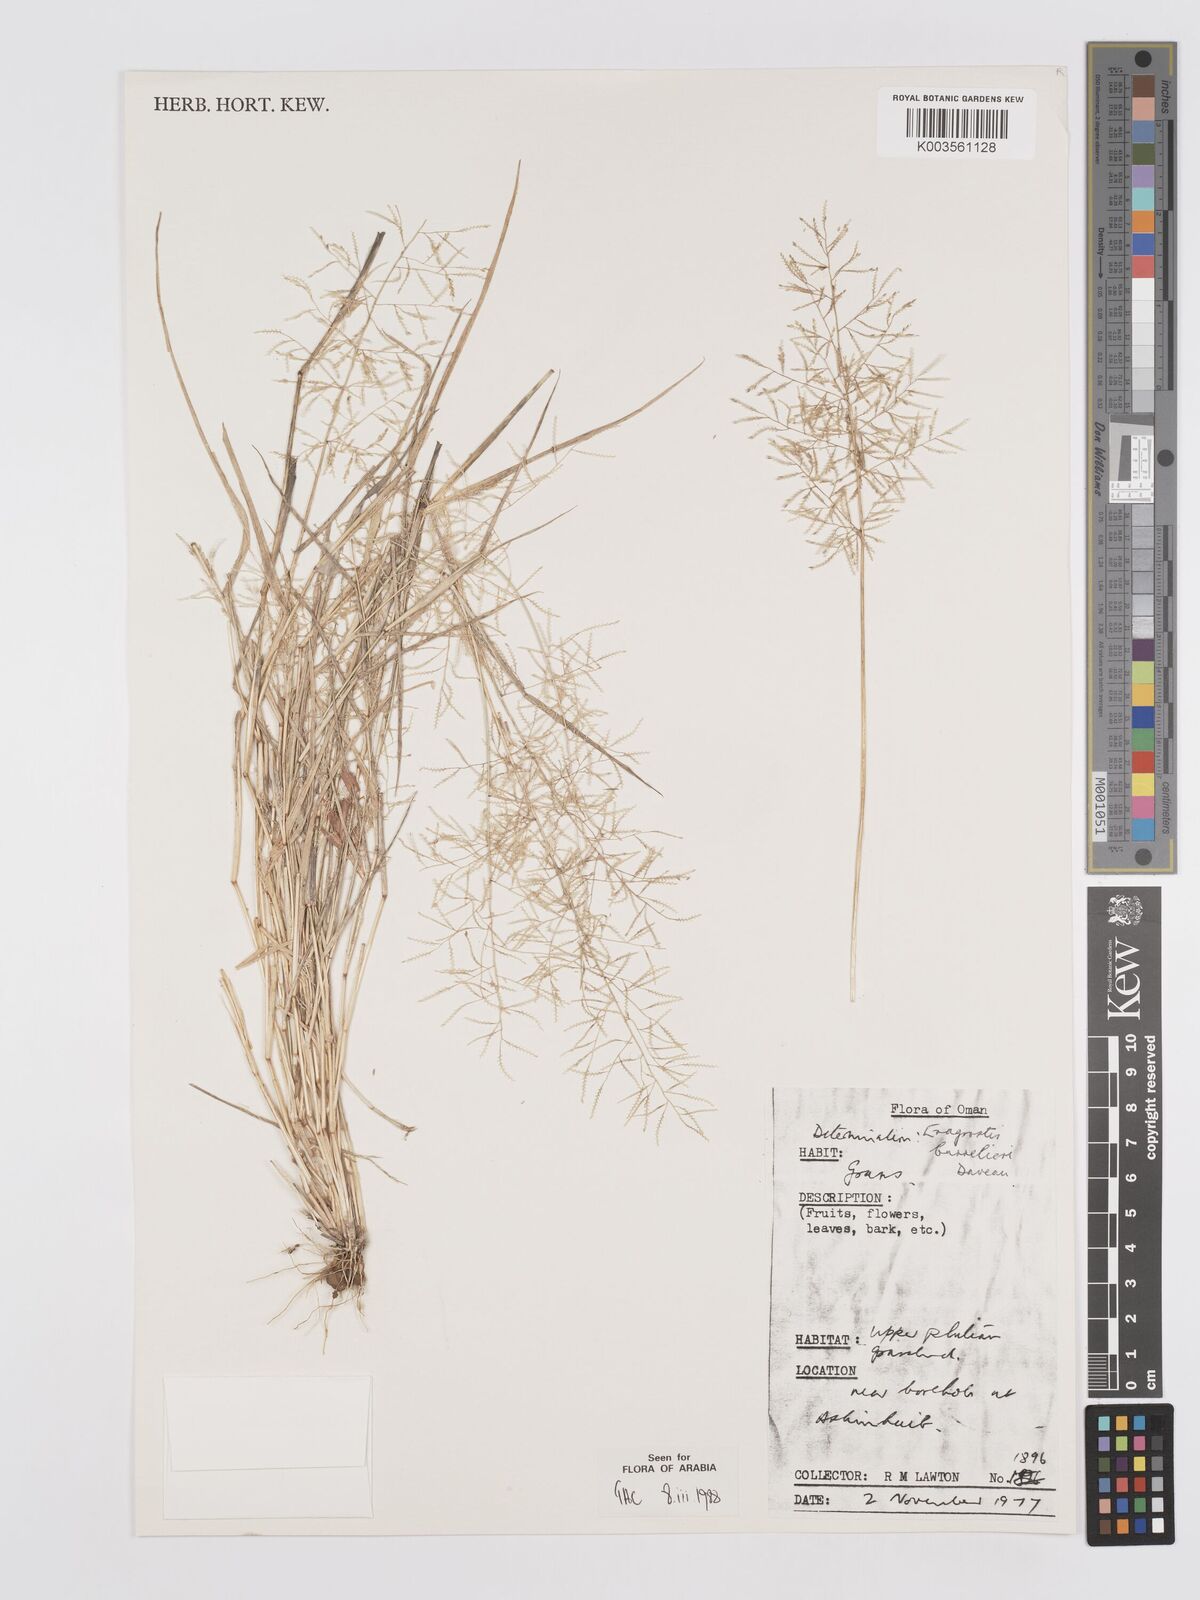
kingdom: Plantae
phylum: Tracheophyta
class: Liliopsida
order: Poales
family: Poaceae
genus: Eragrostis
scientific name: Eragrostis barrelieri
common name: Mediterranean lovegrass
